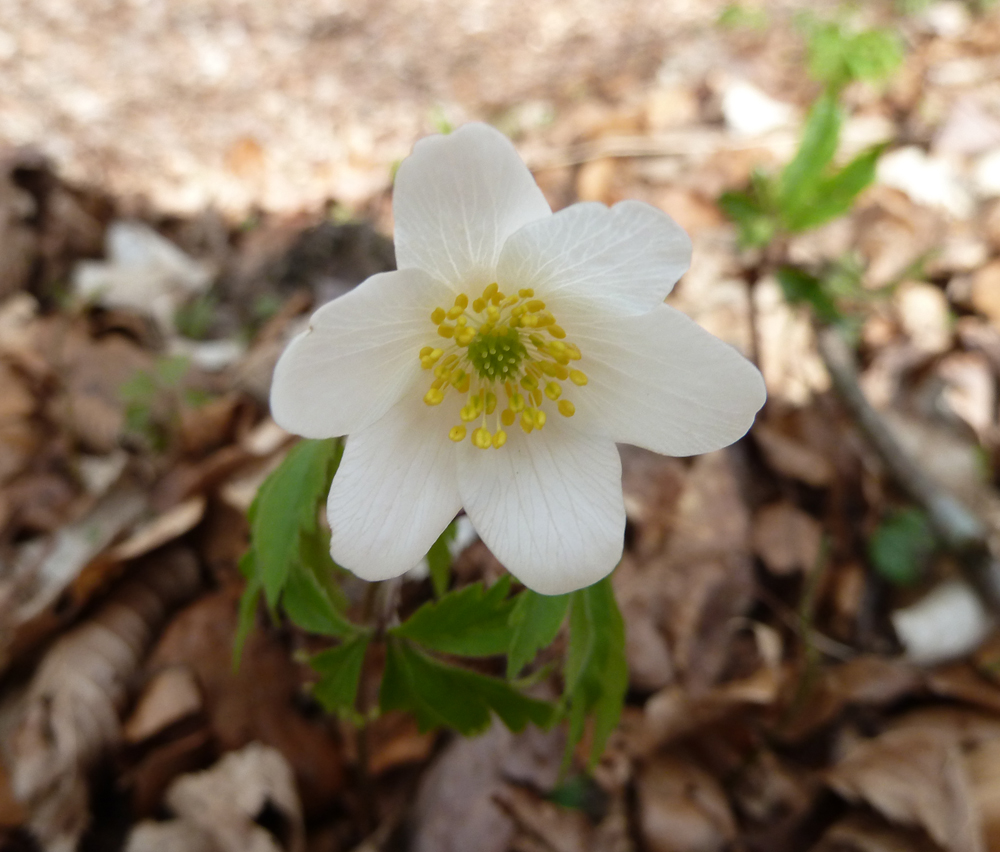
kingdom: Plantae
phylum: Tracheophyta
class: Magnoliopsida
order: Ranunculales
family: Ranunculaceae
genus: Anemone
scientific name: Anemone nemorosa
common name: Wood anemone
